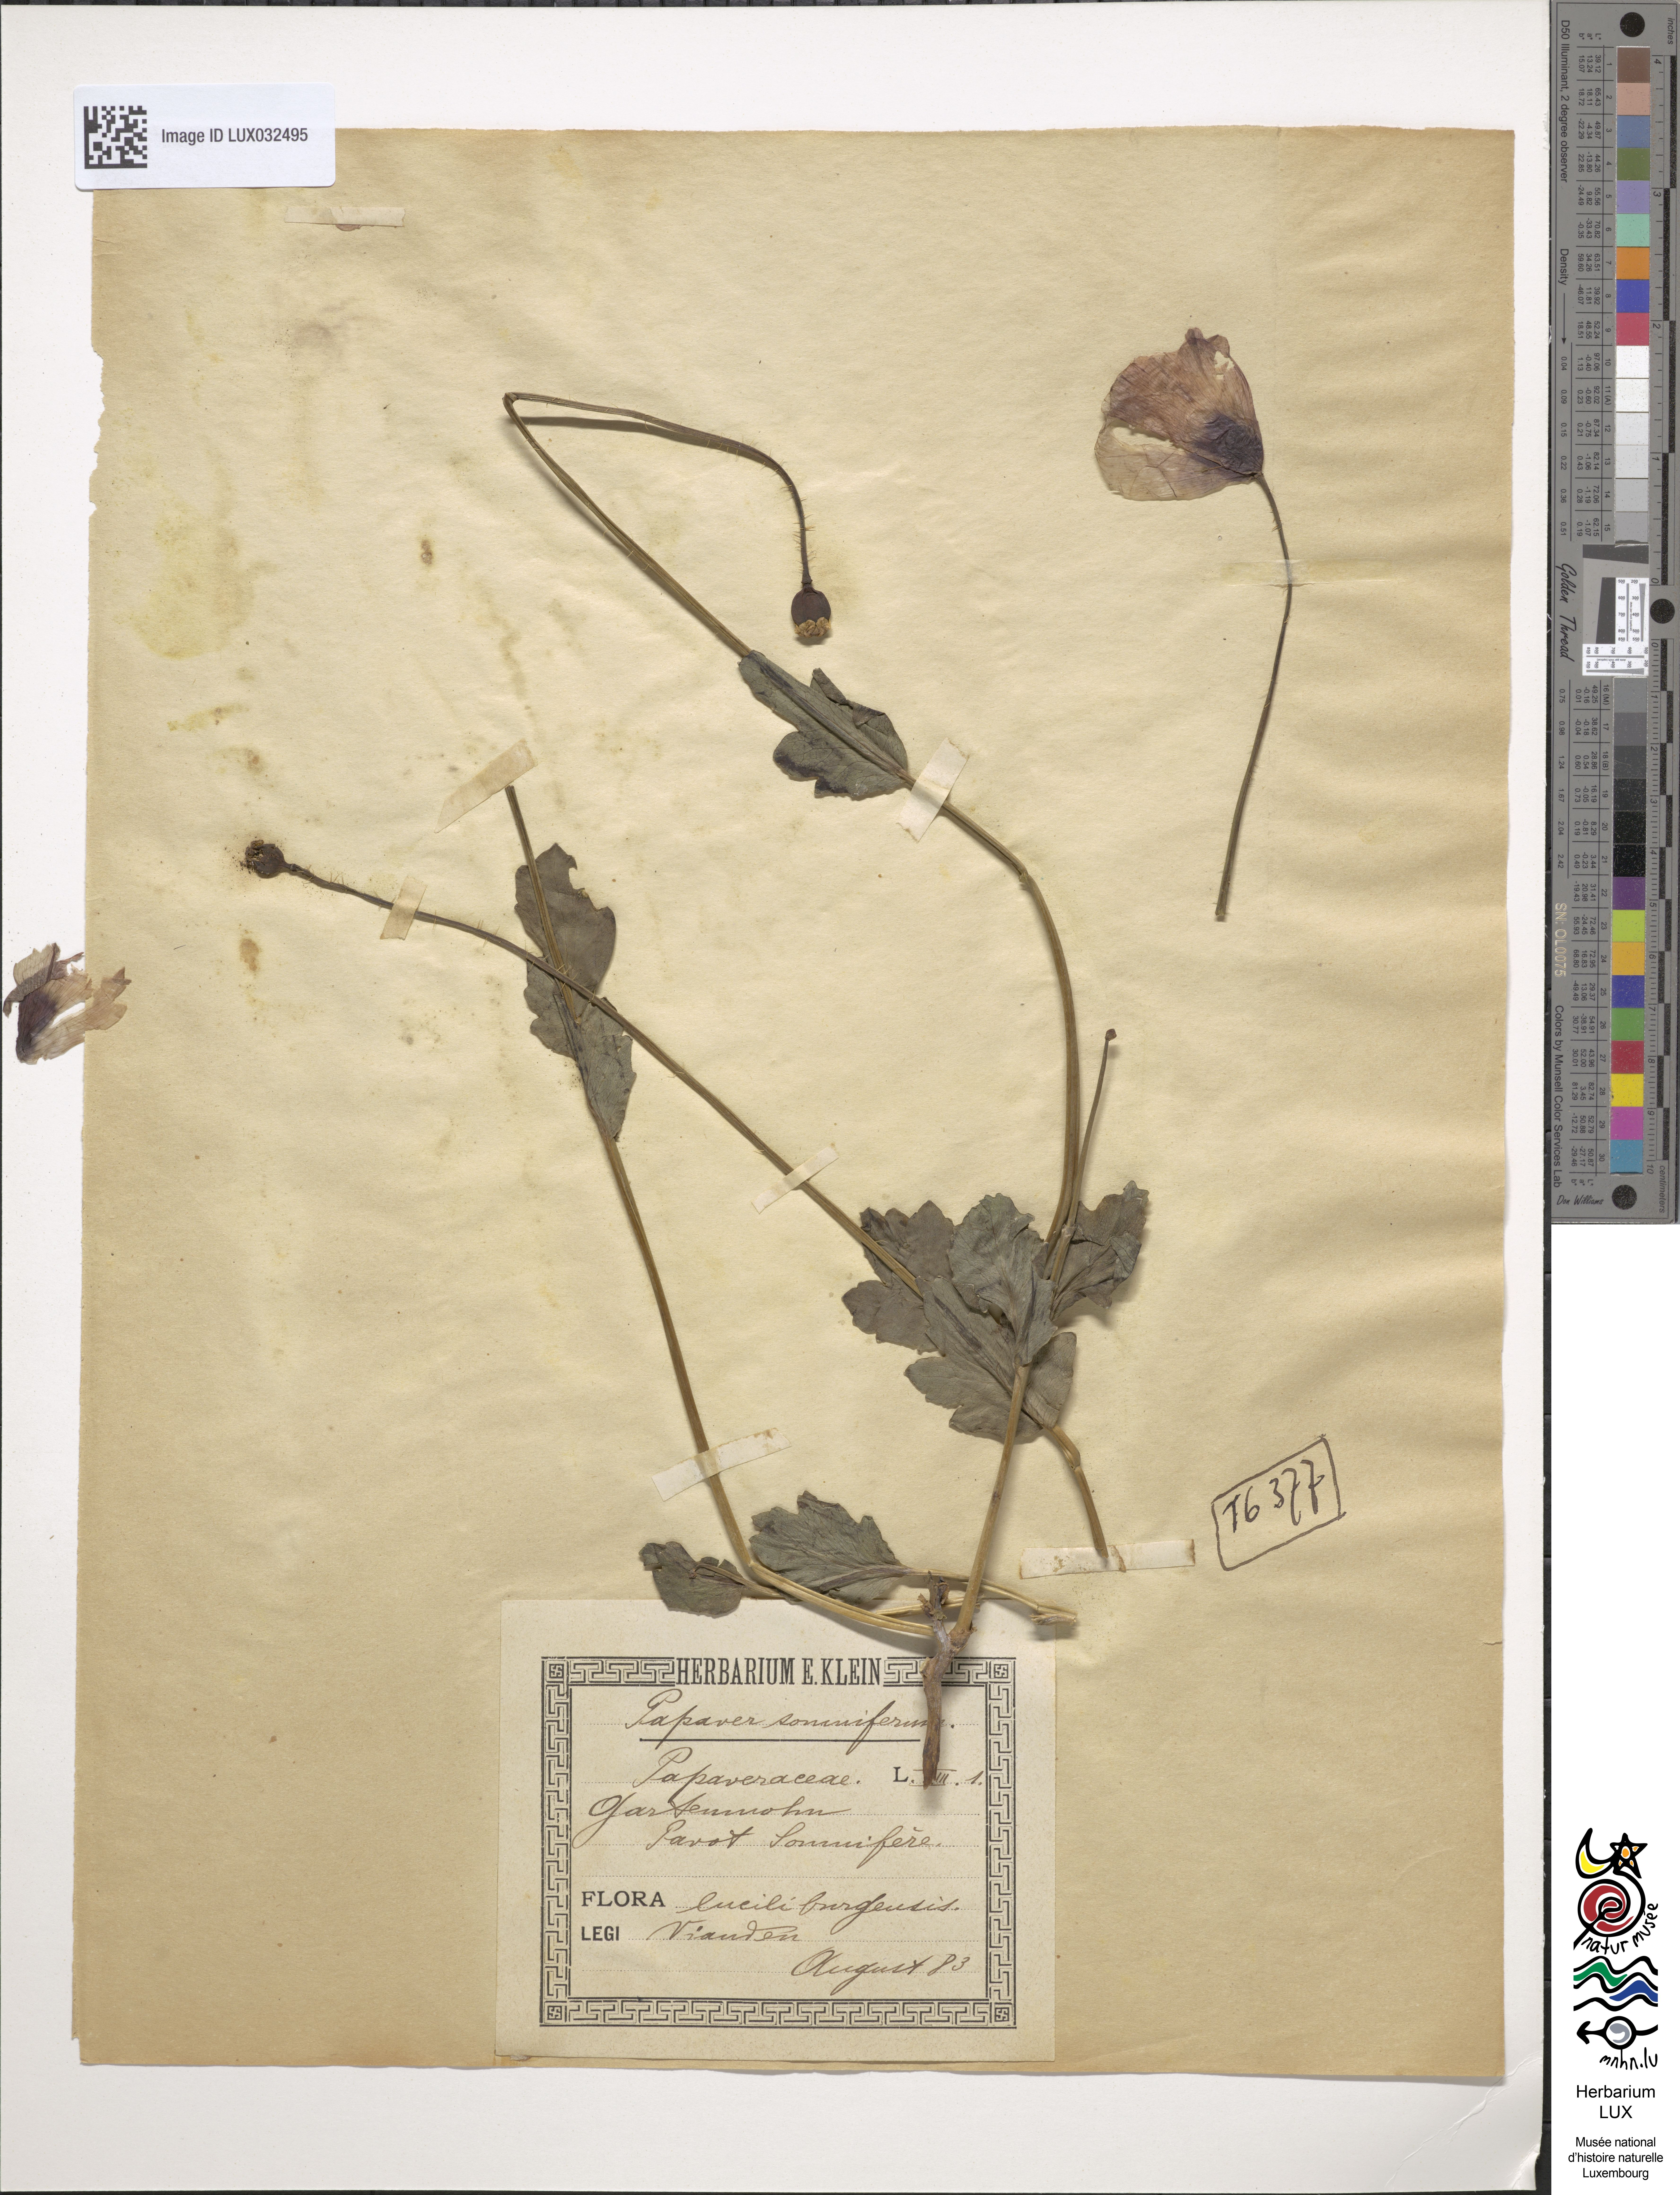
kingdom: Plantae
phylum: Tracheophyta
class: Magnoliopsida
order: Ranunculales
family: Papaveraceae
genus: Papaver
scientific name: Papaver somniferum
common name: Opium poppy
